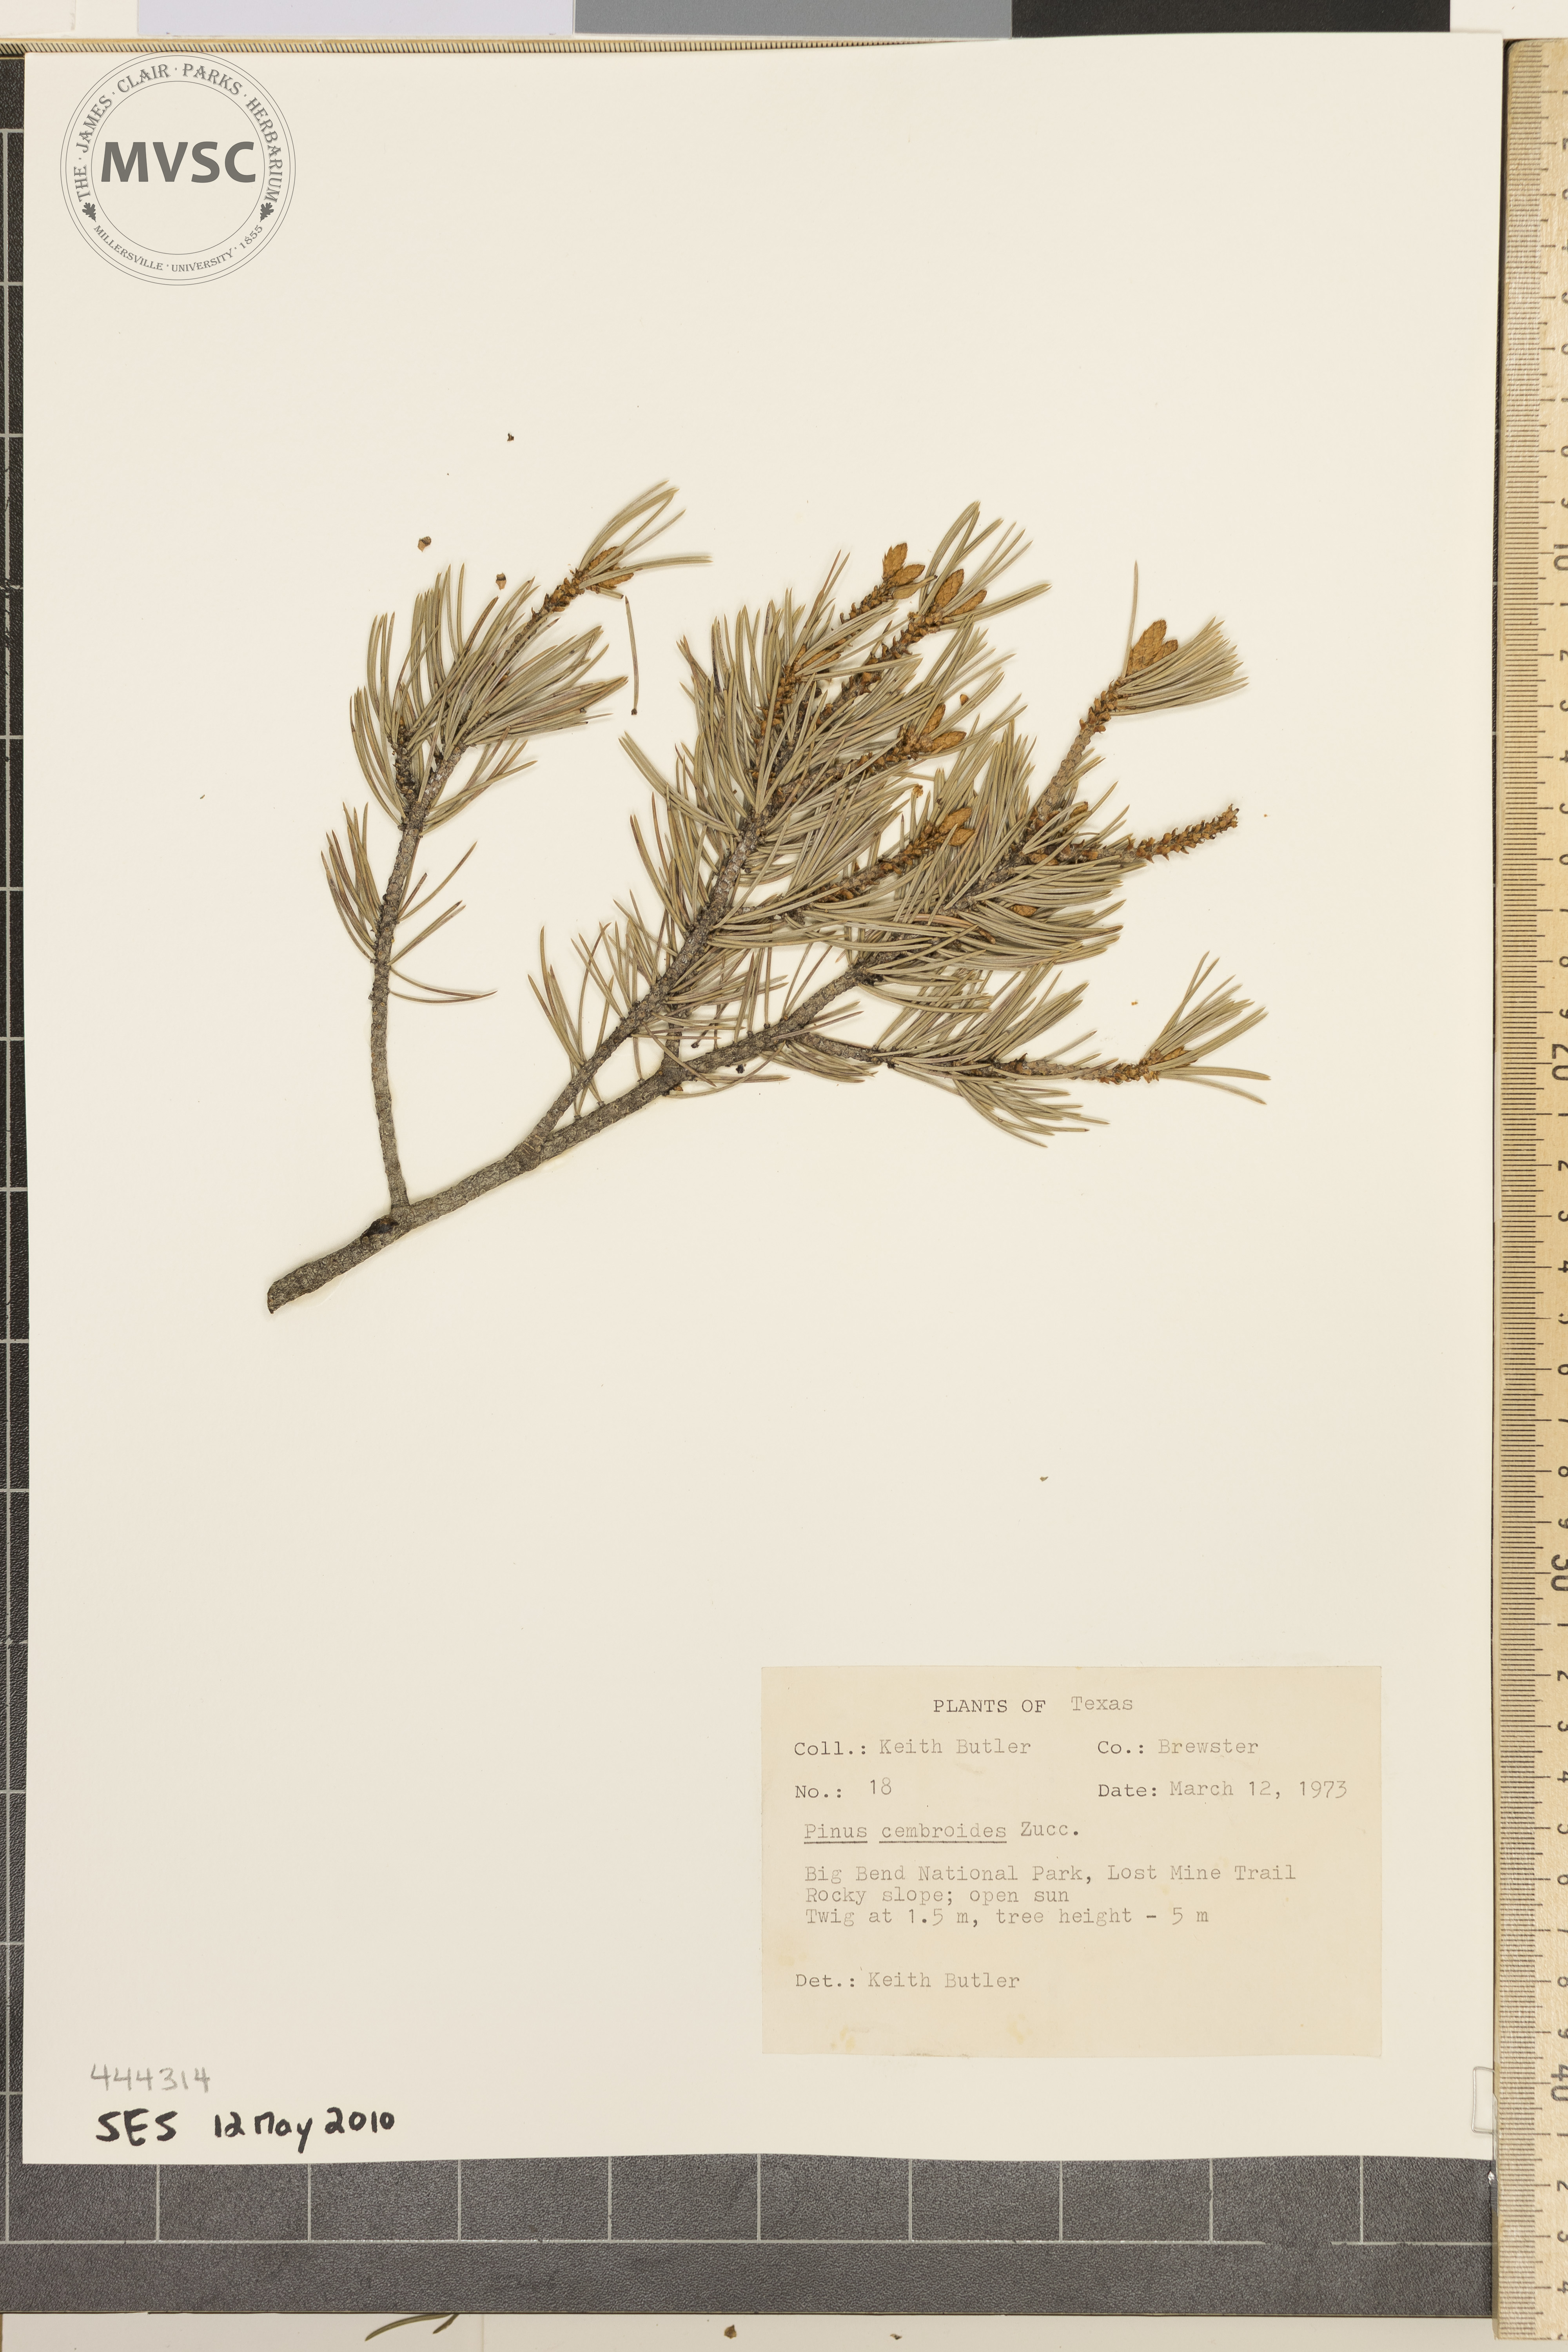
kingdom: Plantae
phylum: Tracheophyta
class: Pinopsida
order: Pinales
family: Pinaceae
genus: Pinus
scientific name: Pinus cembroides
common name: Pinyon pine
